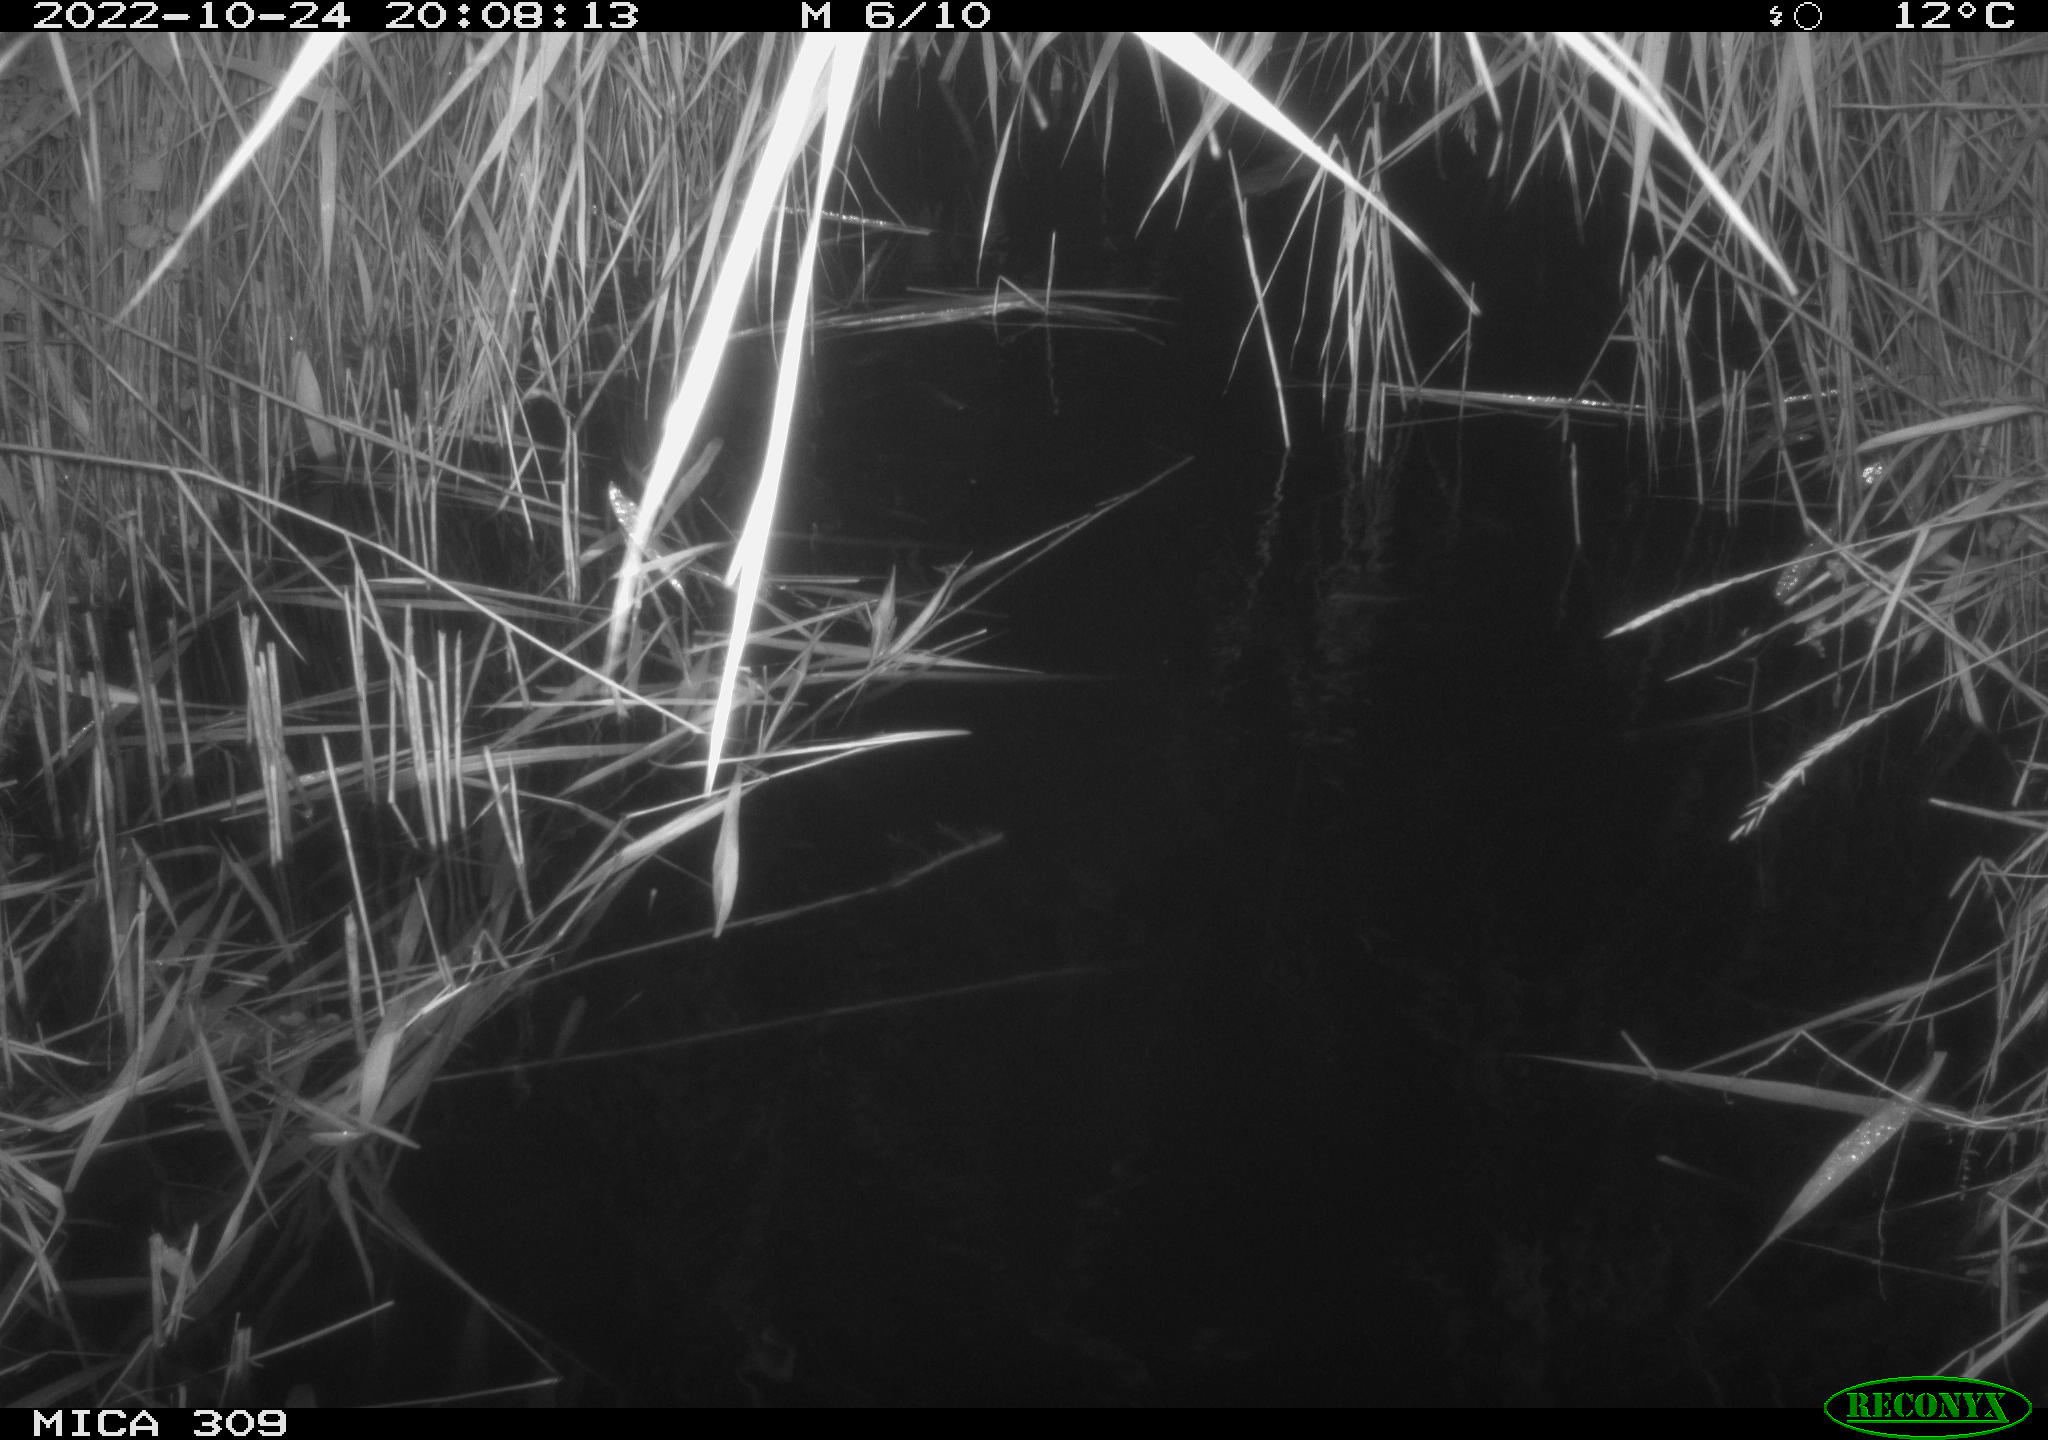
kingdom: Animalia
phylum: Chordata
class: Mammalia
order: Rodentia
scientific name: Rodentia
